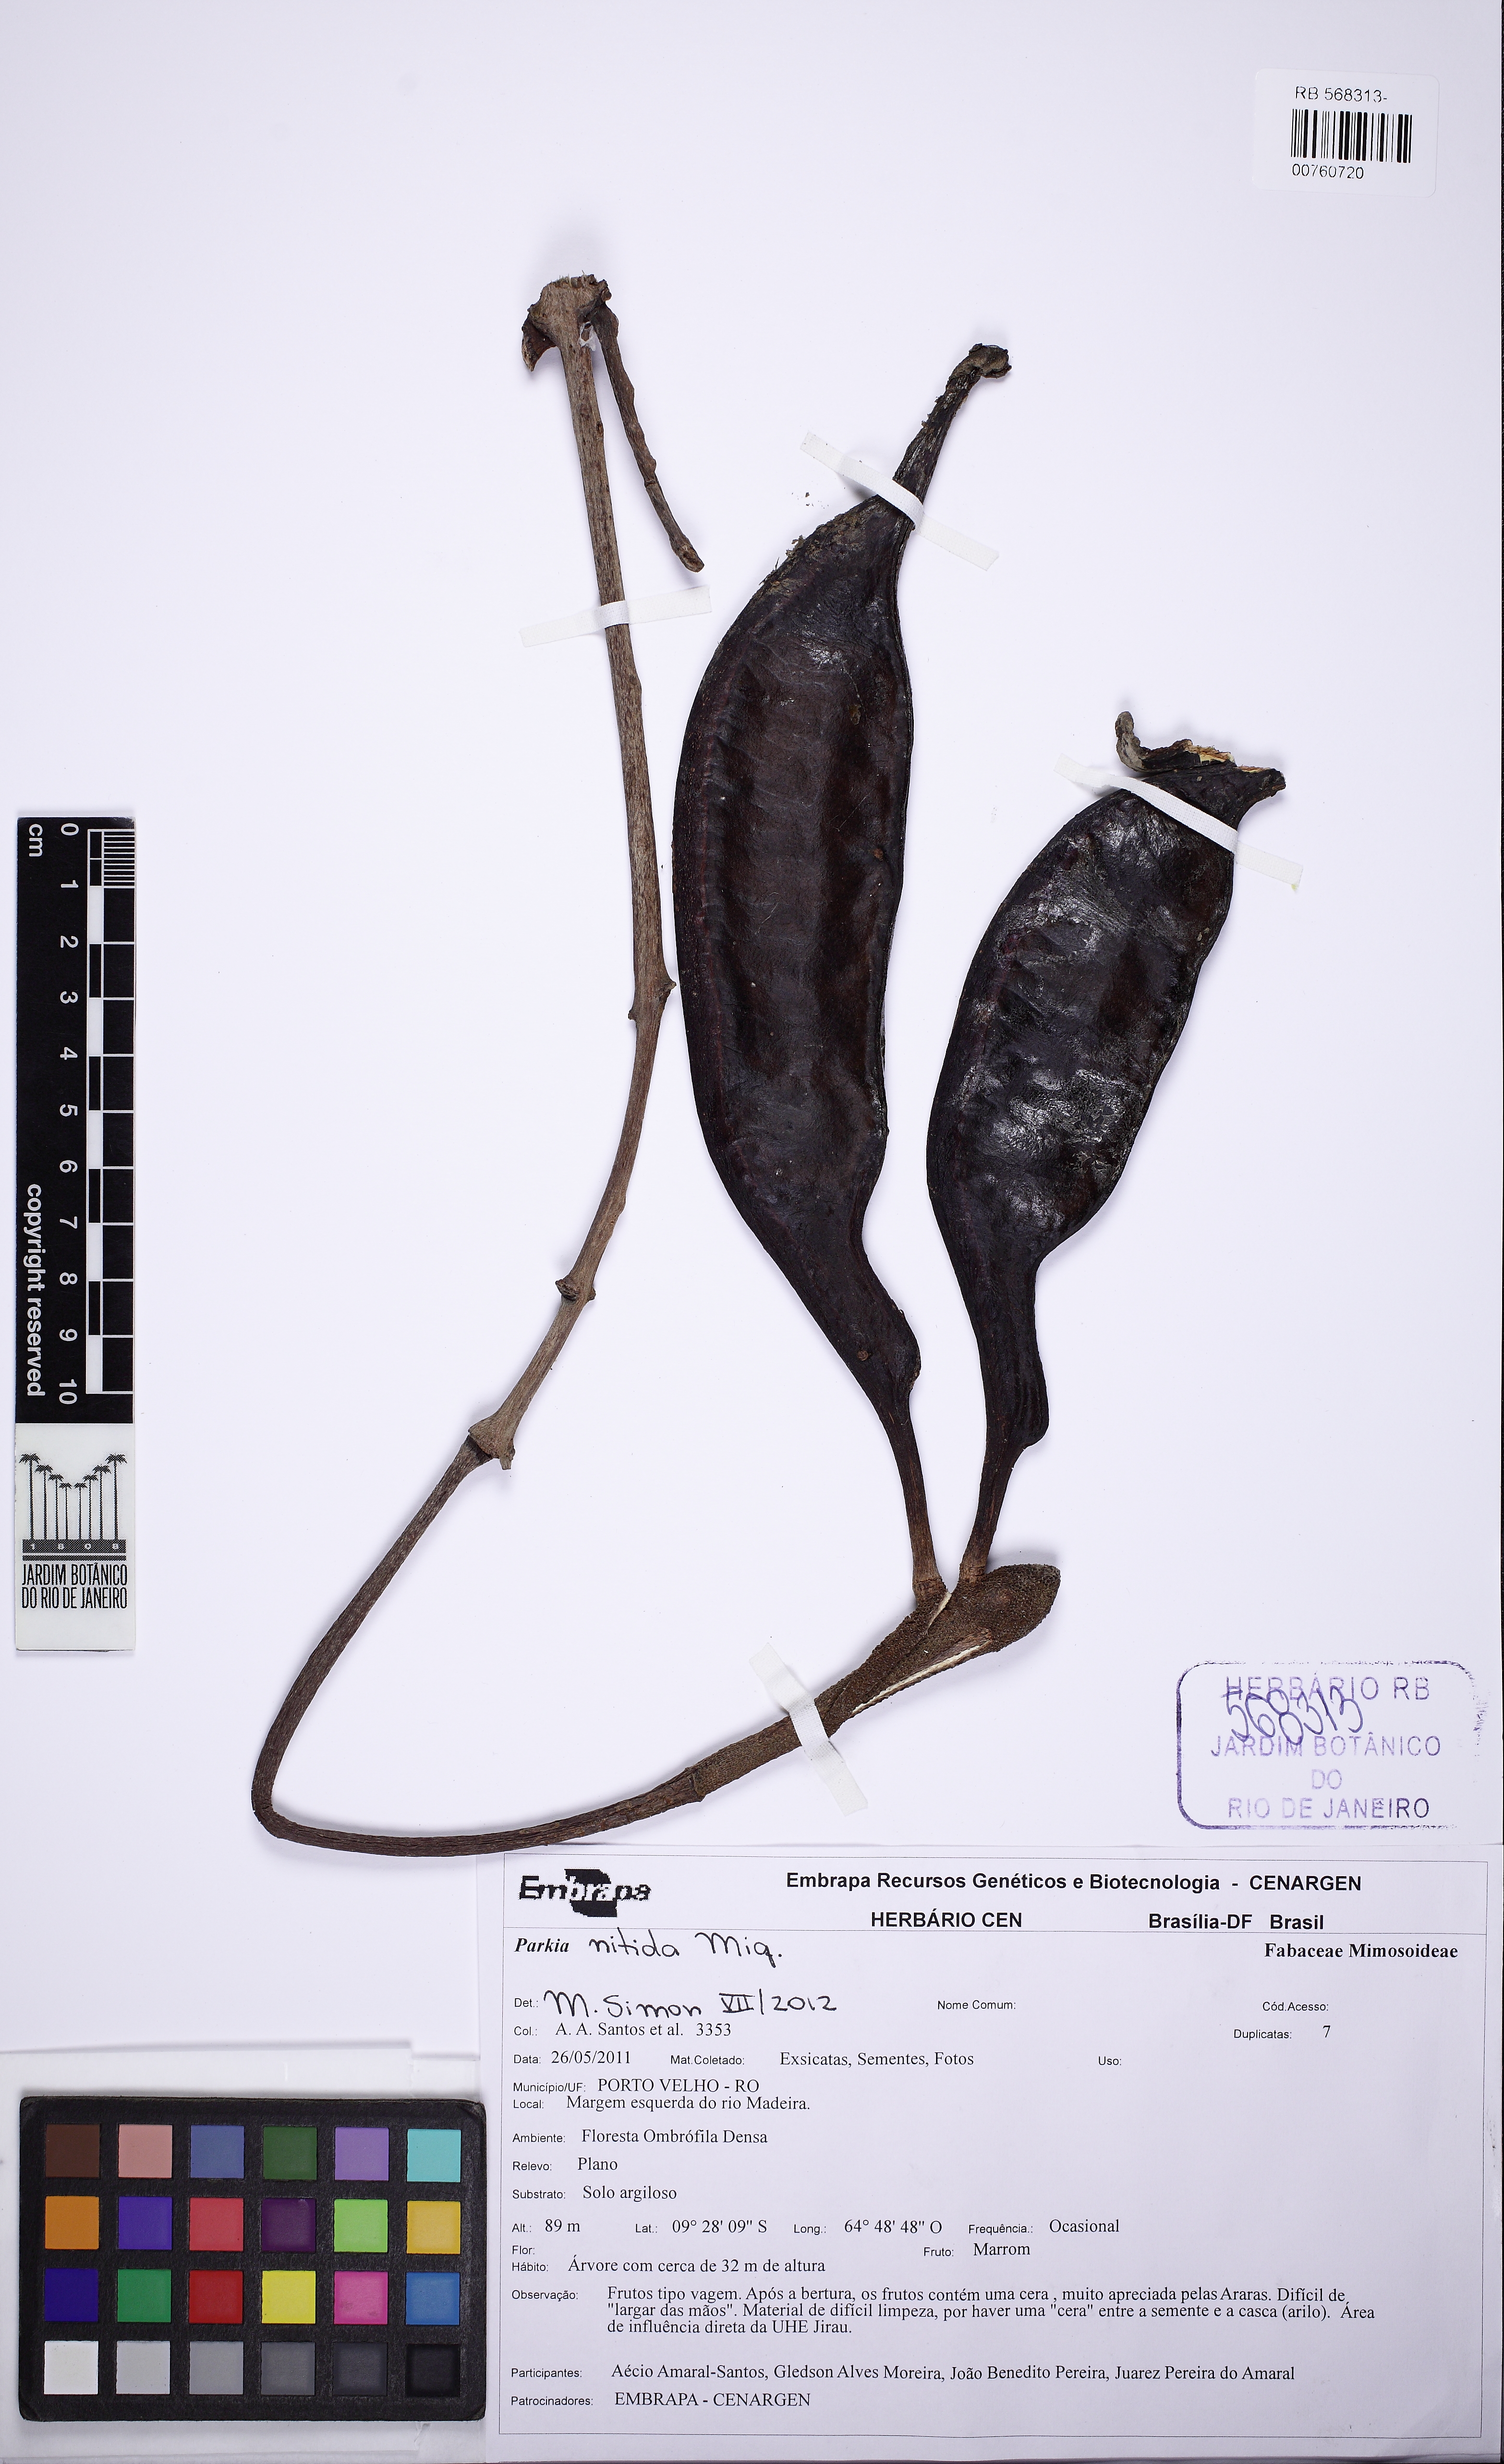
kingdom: Plantae
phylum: Tracheophyta
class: Magnoliopsida
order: Fabales
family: Fabaceae
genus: Parkia
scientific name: Parkia nitida
